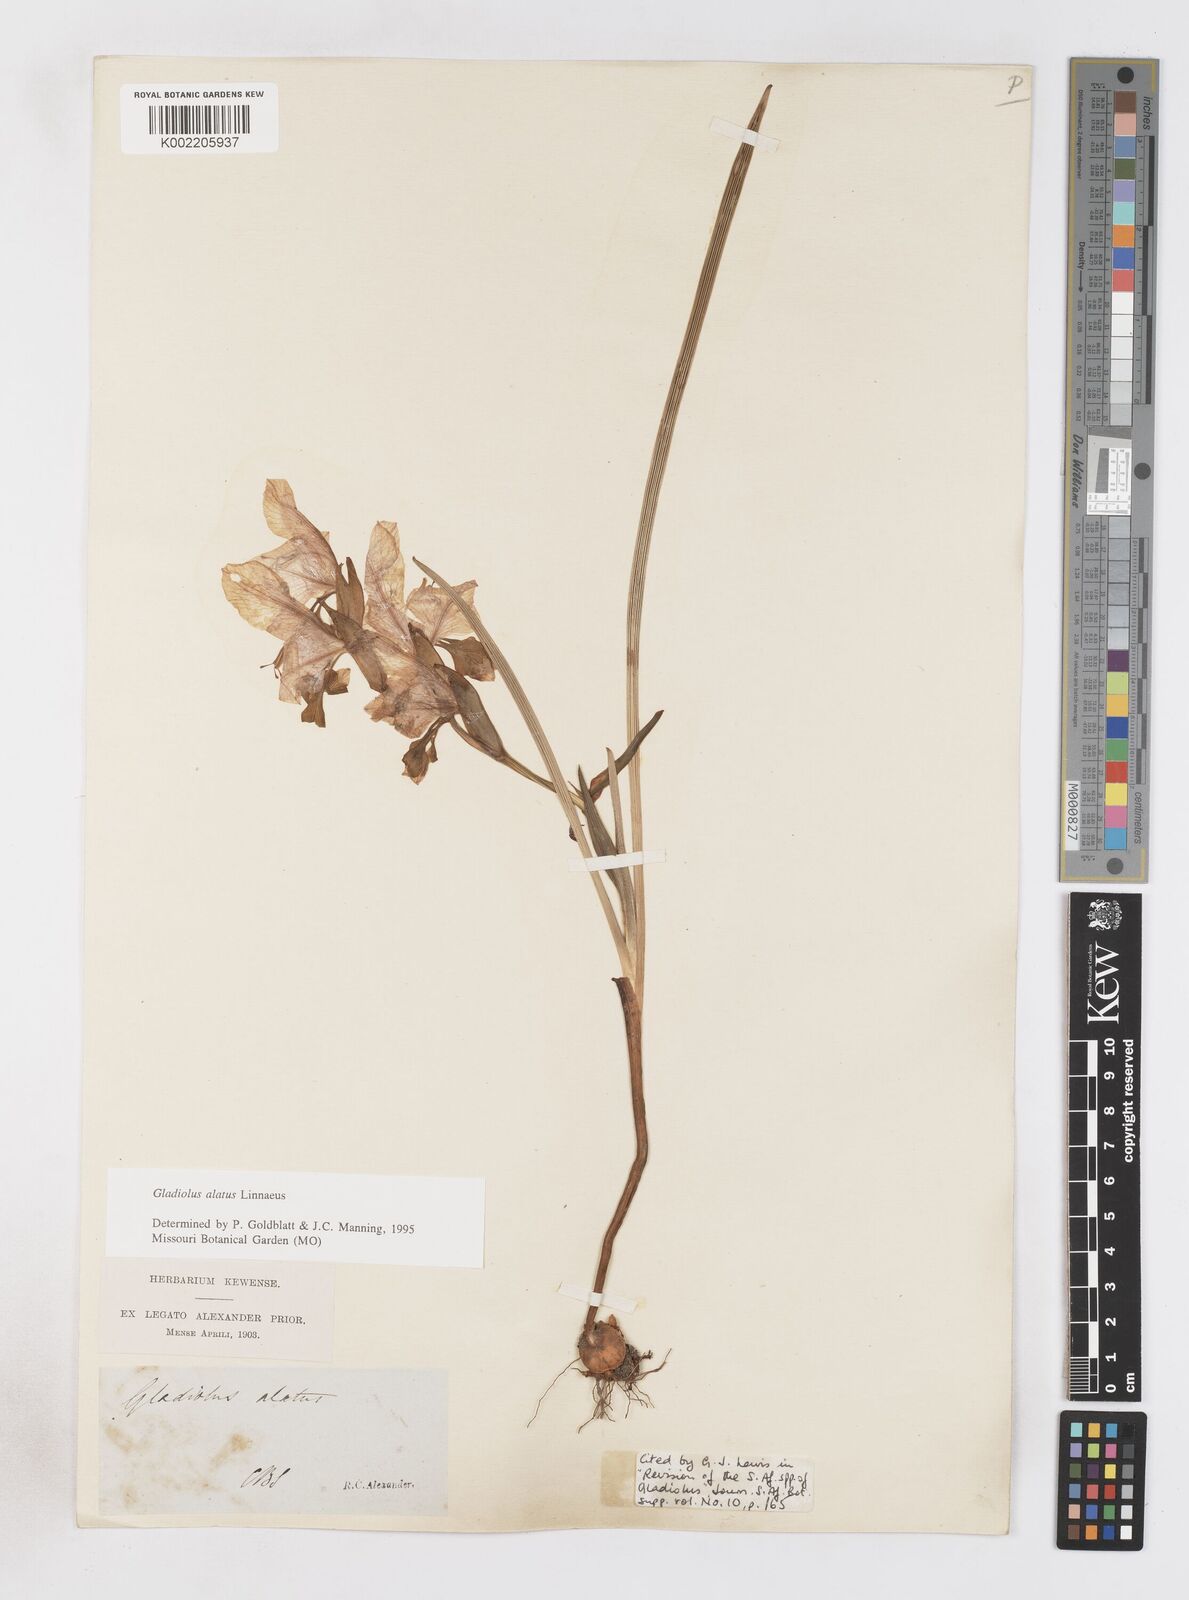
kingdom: Plantae
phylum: Tracheophyta
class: Liliopsida
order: Asparagales
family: Iridaceae
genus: Gladiolus
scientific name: Gladiolus alatus
